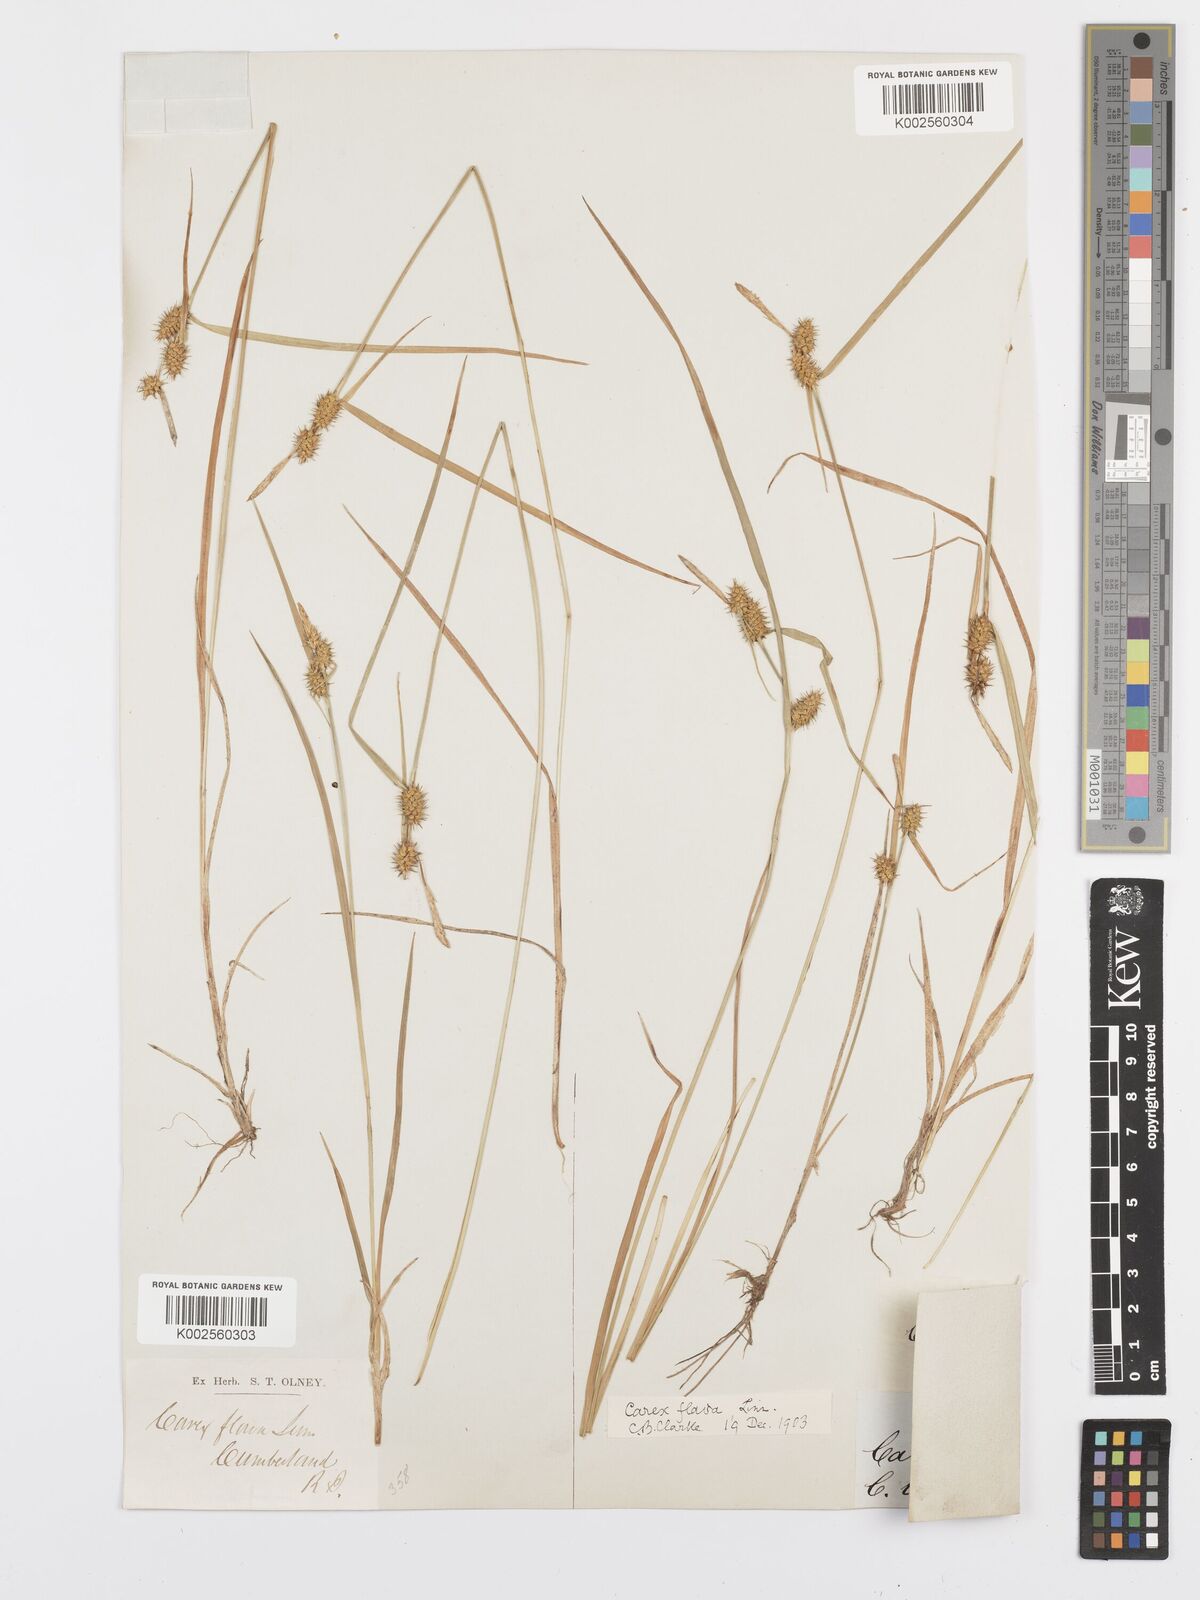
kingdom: Plantae
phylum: Tracheophyta
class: Liliopsida
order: Poales
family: Cyperaceae
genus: Carex
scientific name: Carex flava
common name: Large yellow-sedge
